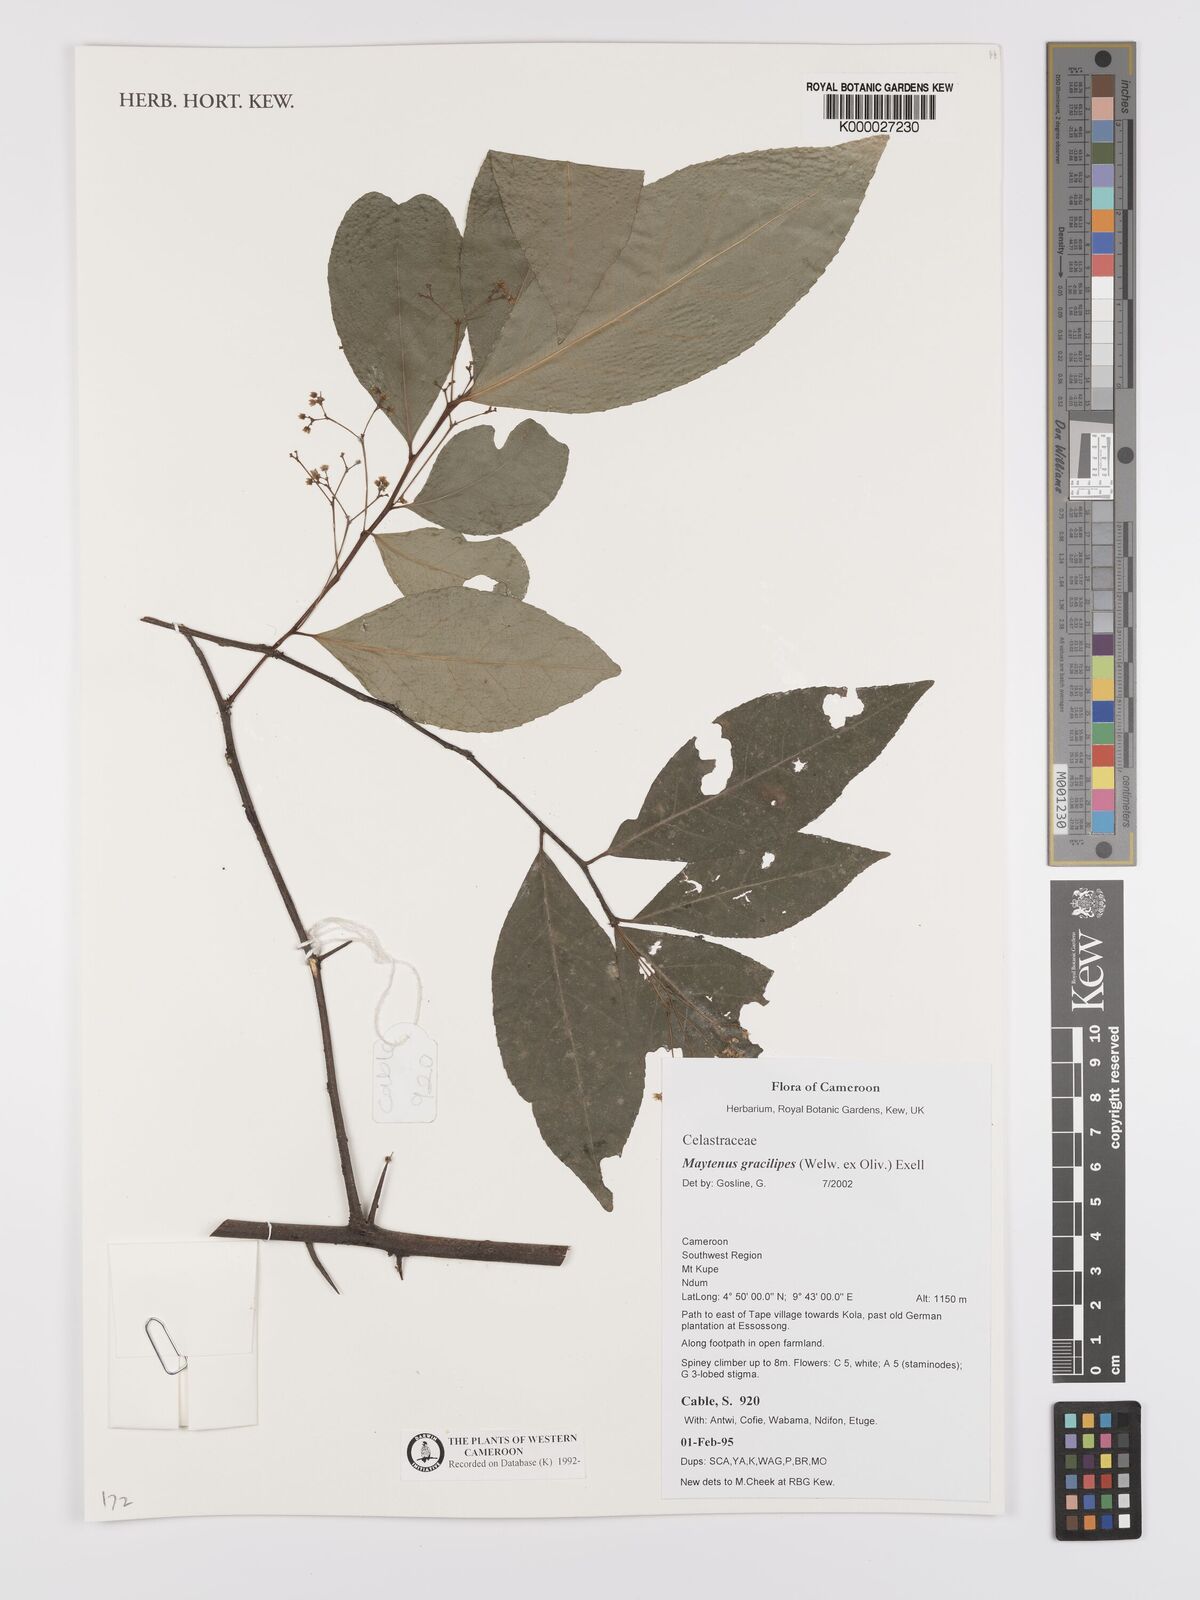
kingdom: Plantae
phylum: Tracheophyta
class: Magnoliopsida
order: Celastrales
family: Celastraceae
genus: Gymnosporia
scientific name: Gymnosporia gracilipes
